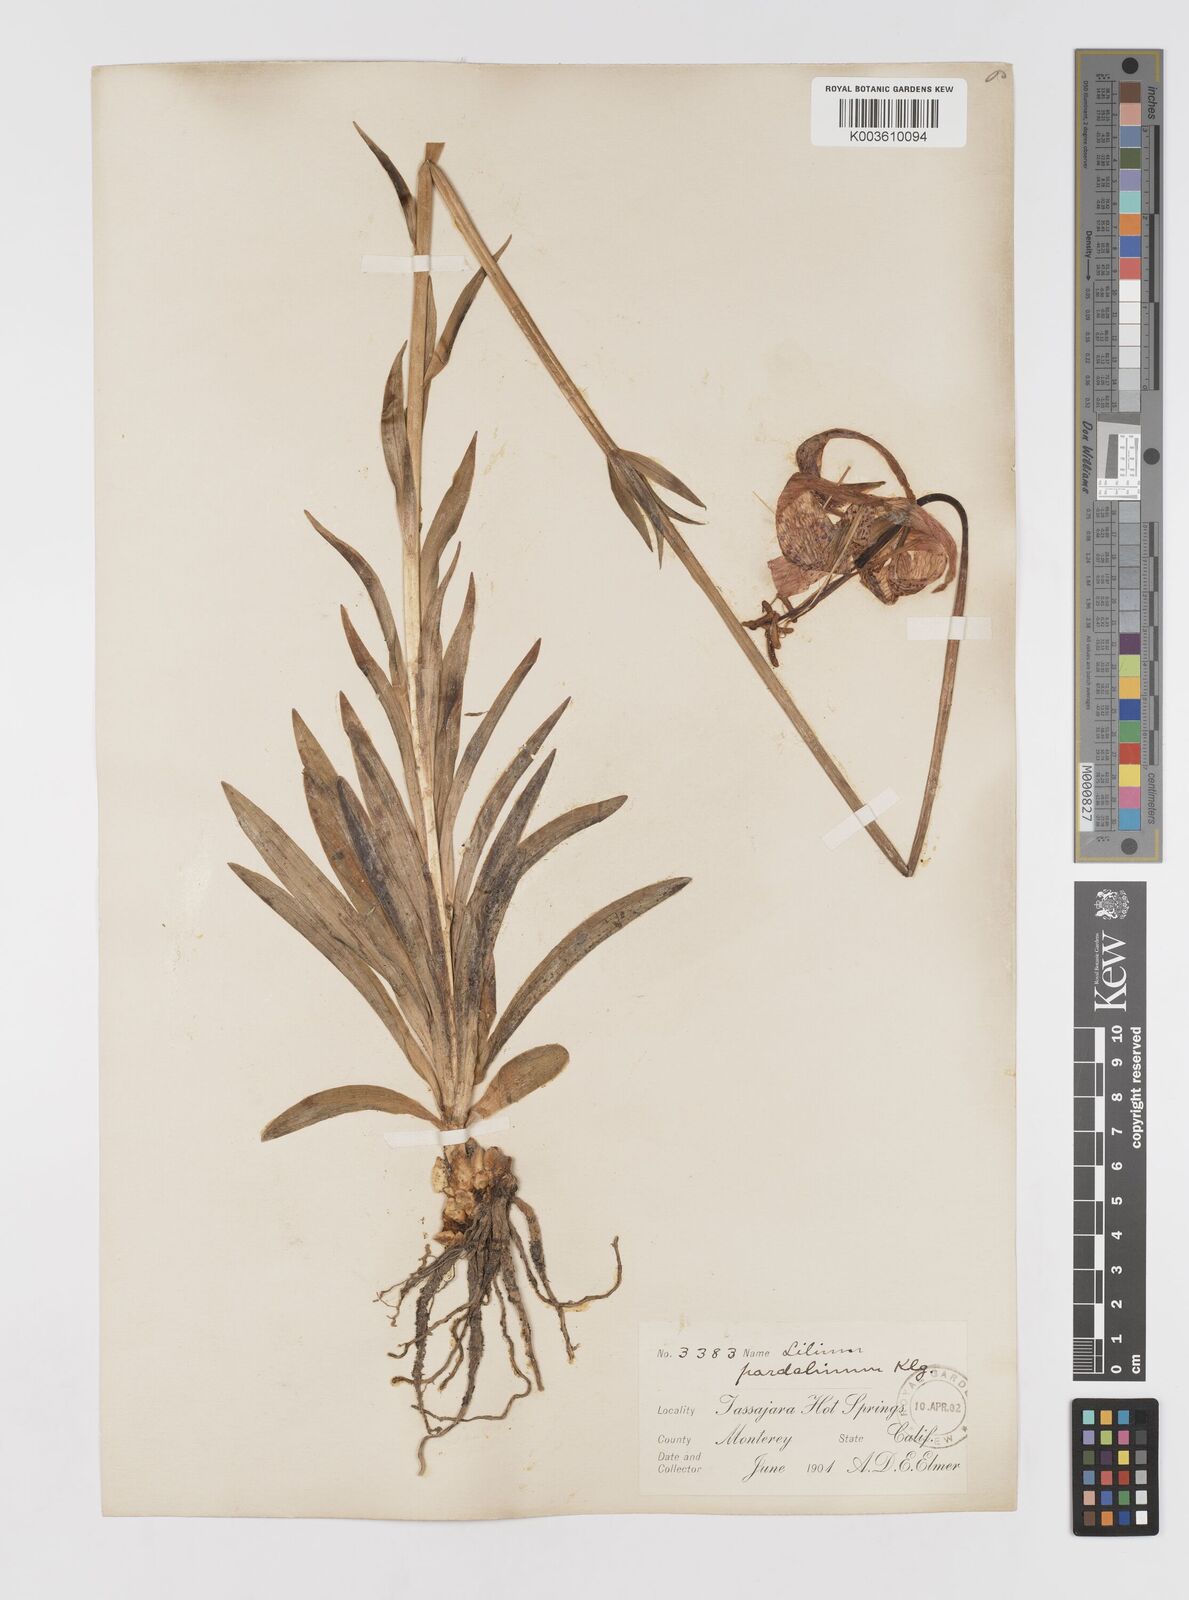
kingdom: Plantae
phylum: Tracheophyta
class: Liliopsida
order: Liliales
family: Liliaceae
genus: Lilium
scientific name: Lilium pardalinum
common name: Panther lily
